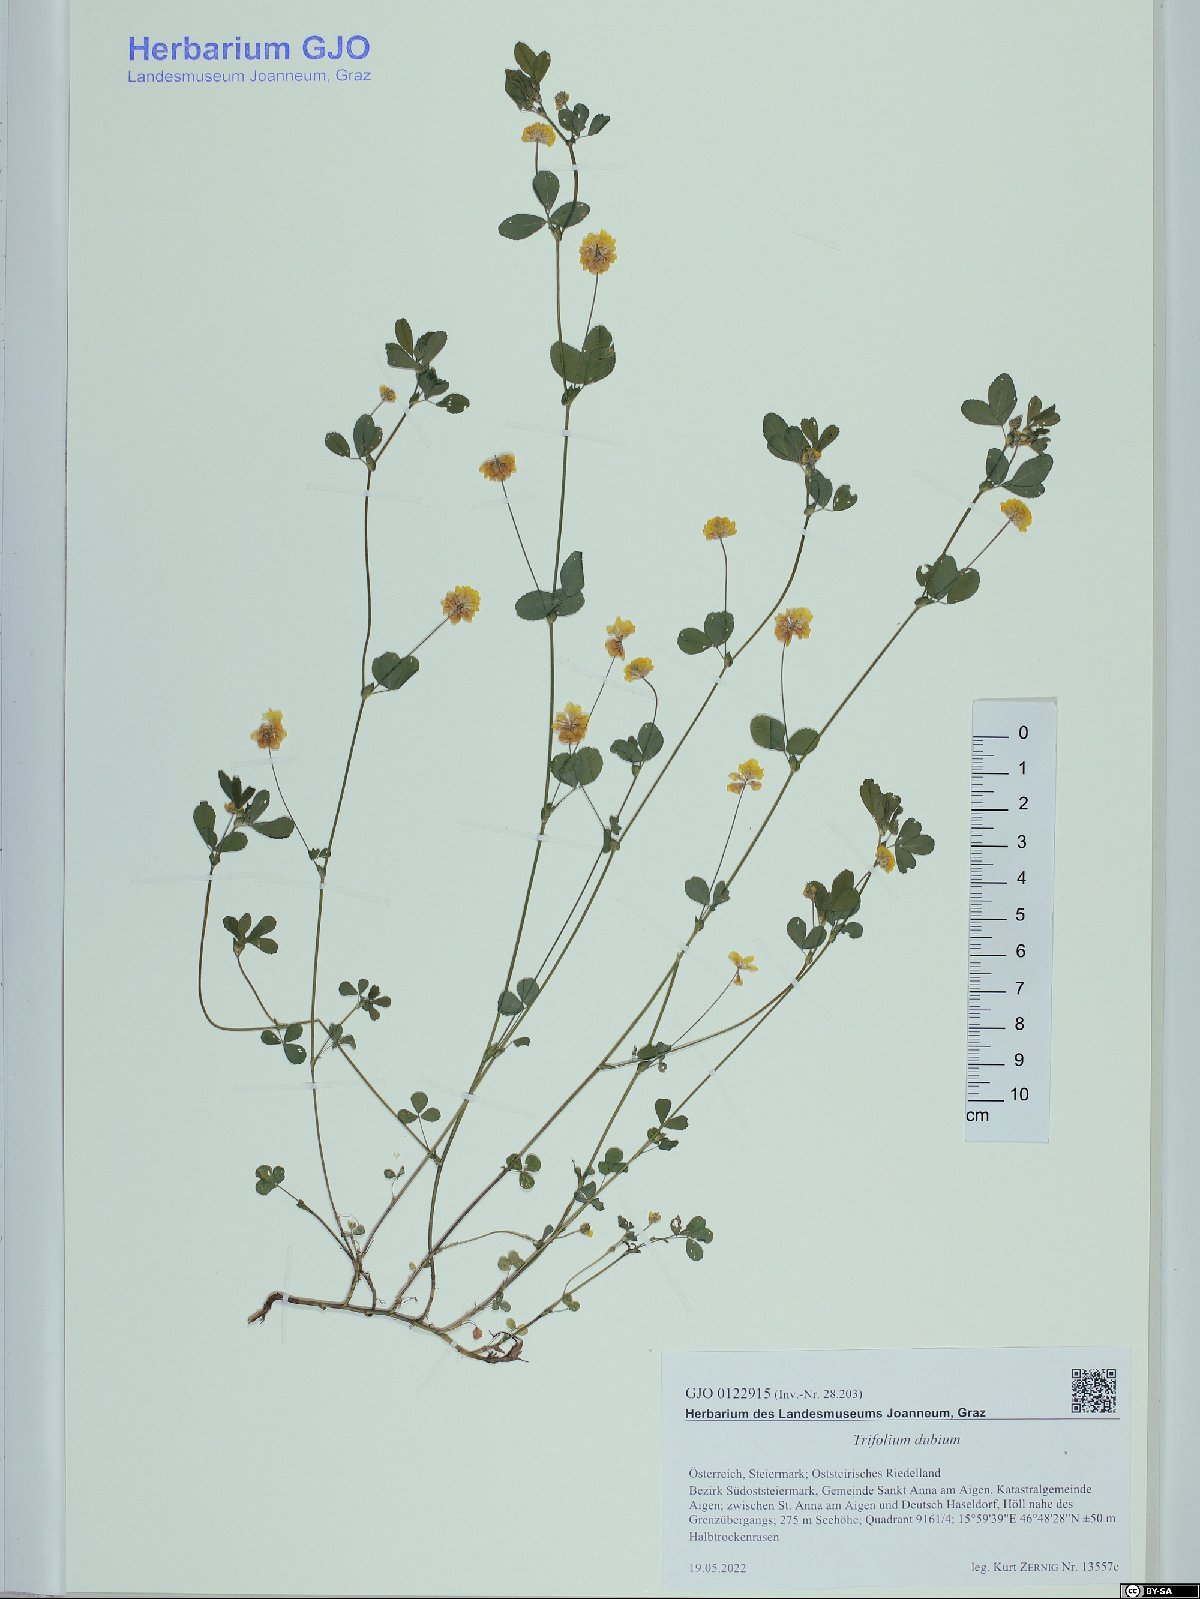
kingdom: Plantae
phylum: Tracheophyta
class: Magnoliopsida
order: Fabales
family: Fabaceae
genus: Trifolium
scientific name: Trifolium dubium
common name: Suckling clover
